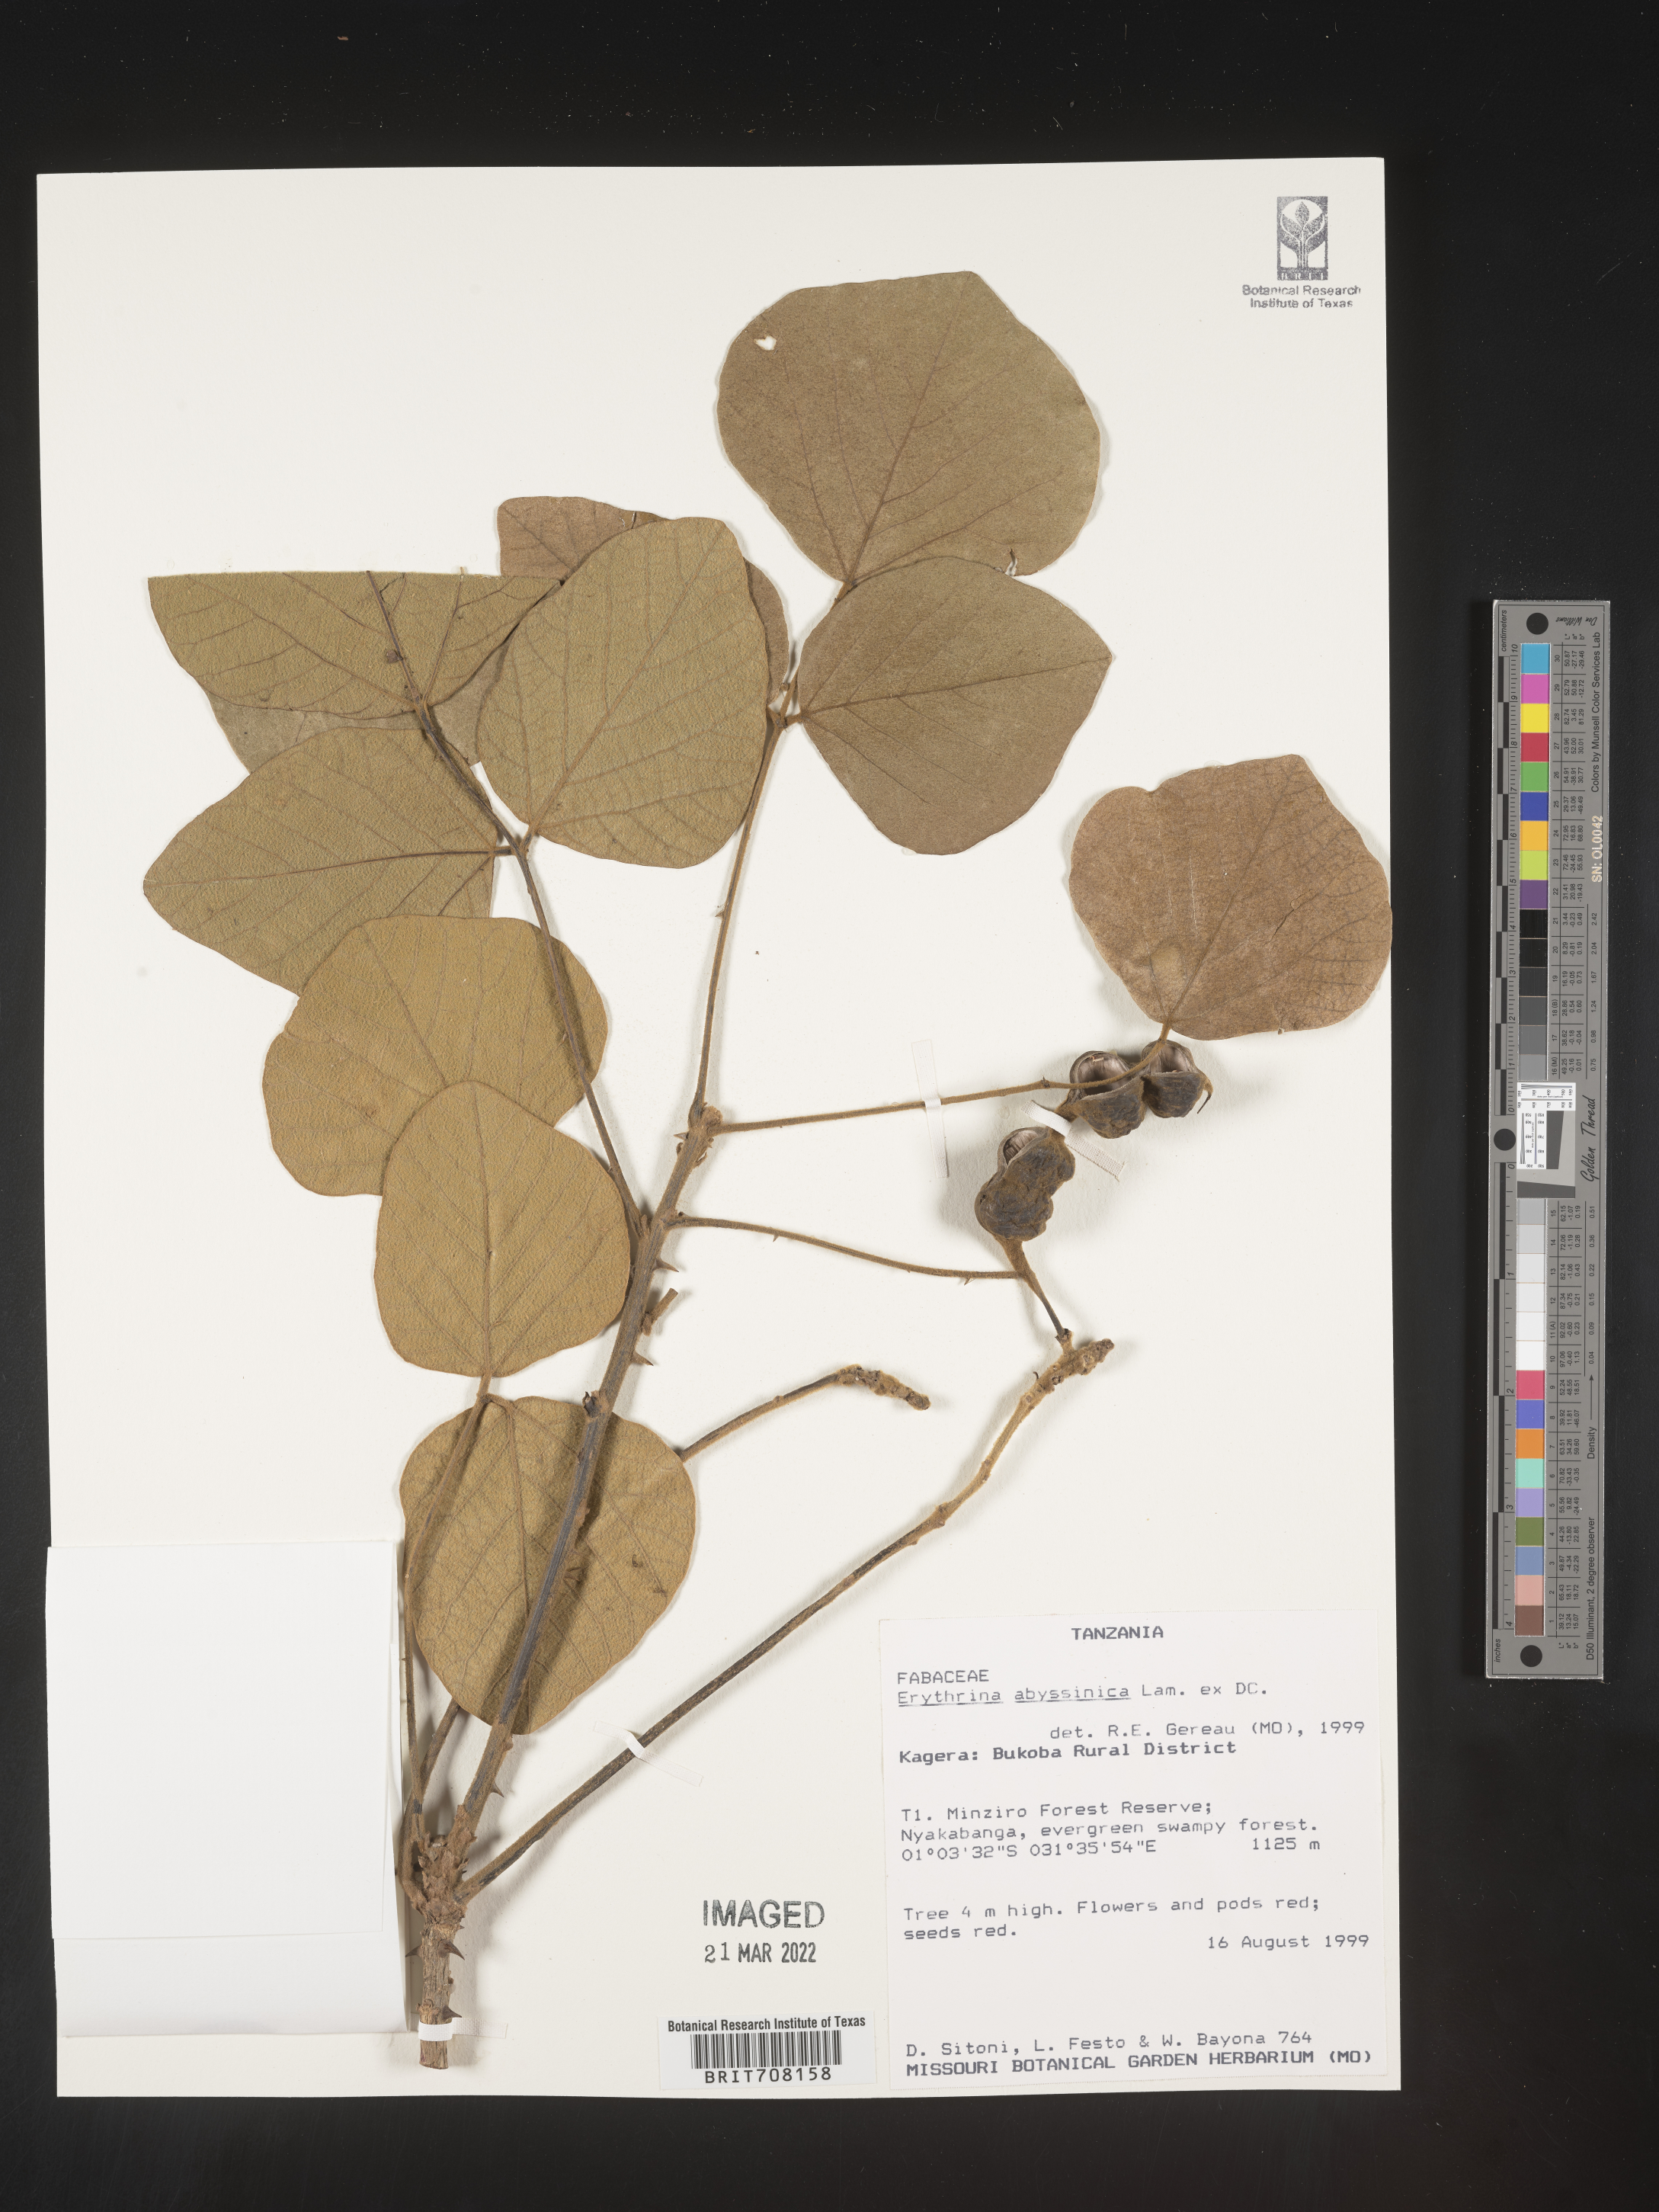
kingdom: Plantae
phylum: Tracheophyta
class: Magnoliopsida
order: Fabales
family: Fabaceae
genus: Erythrina
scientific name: Erythrina
